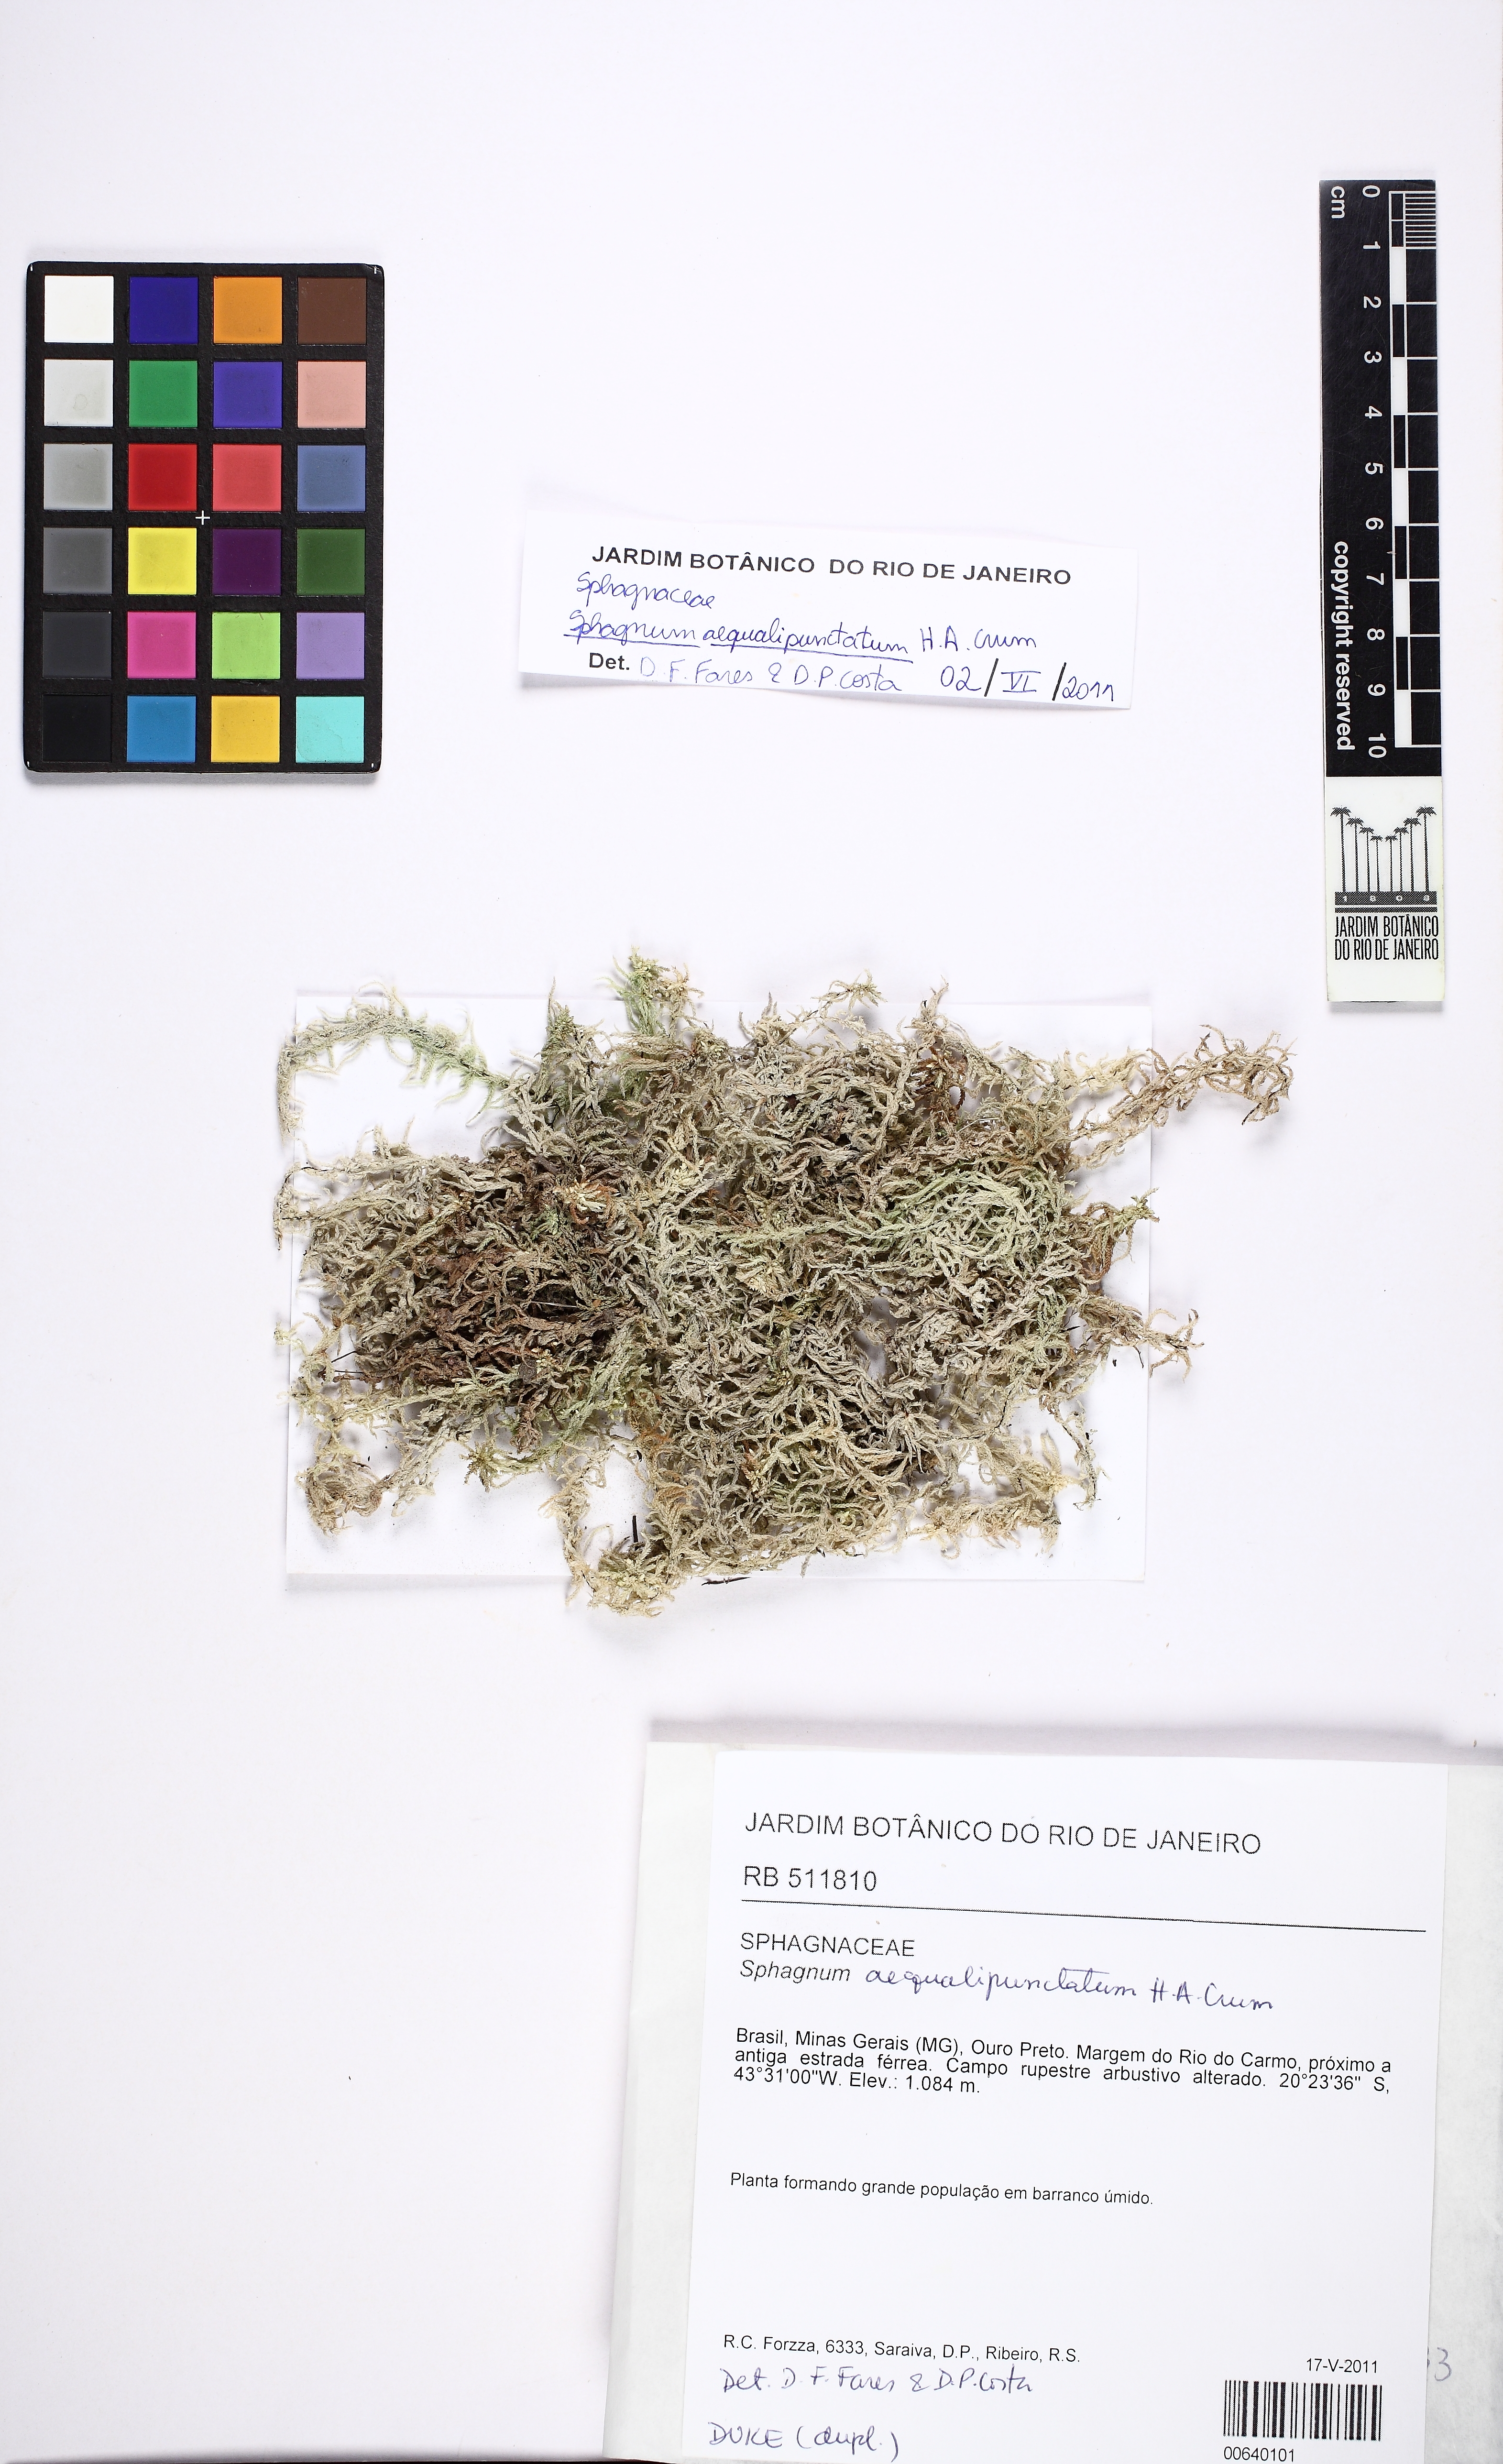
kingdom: Plantae
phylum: Bryophyta
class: Sphagnopsida
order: Sphagnales
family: Sphagnaceae
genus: Sphagnum
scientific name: Sphagnum aequalipunctatum
